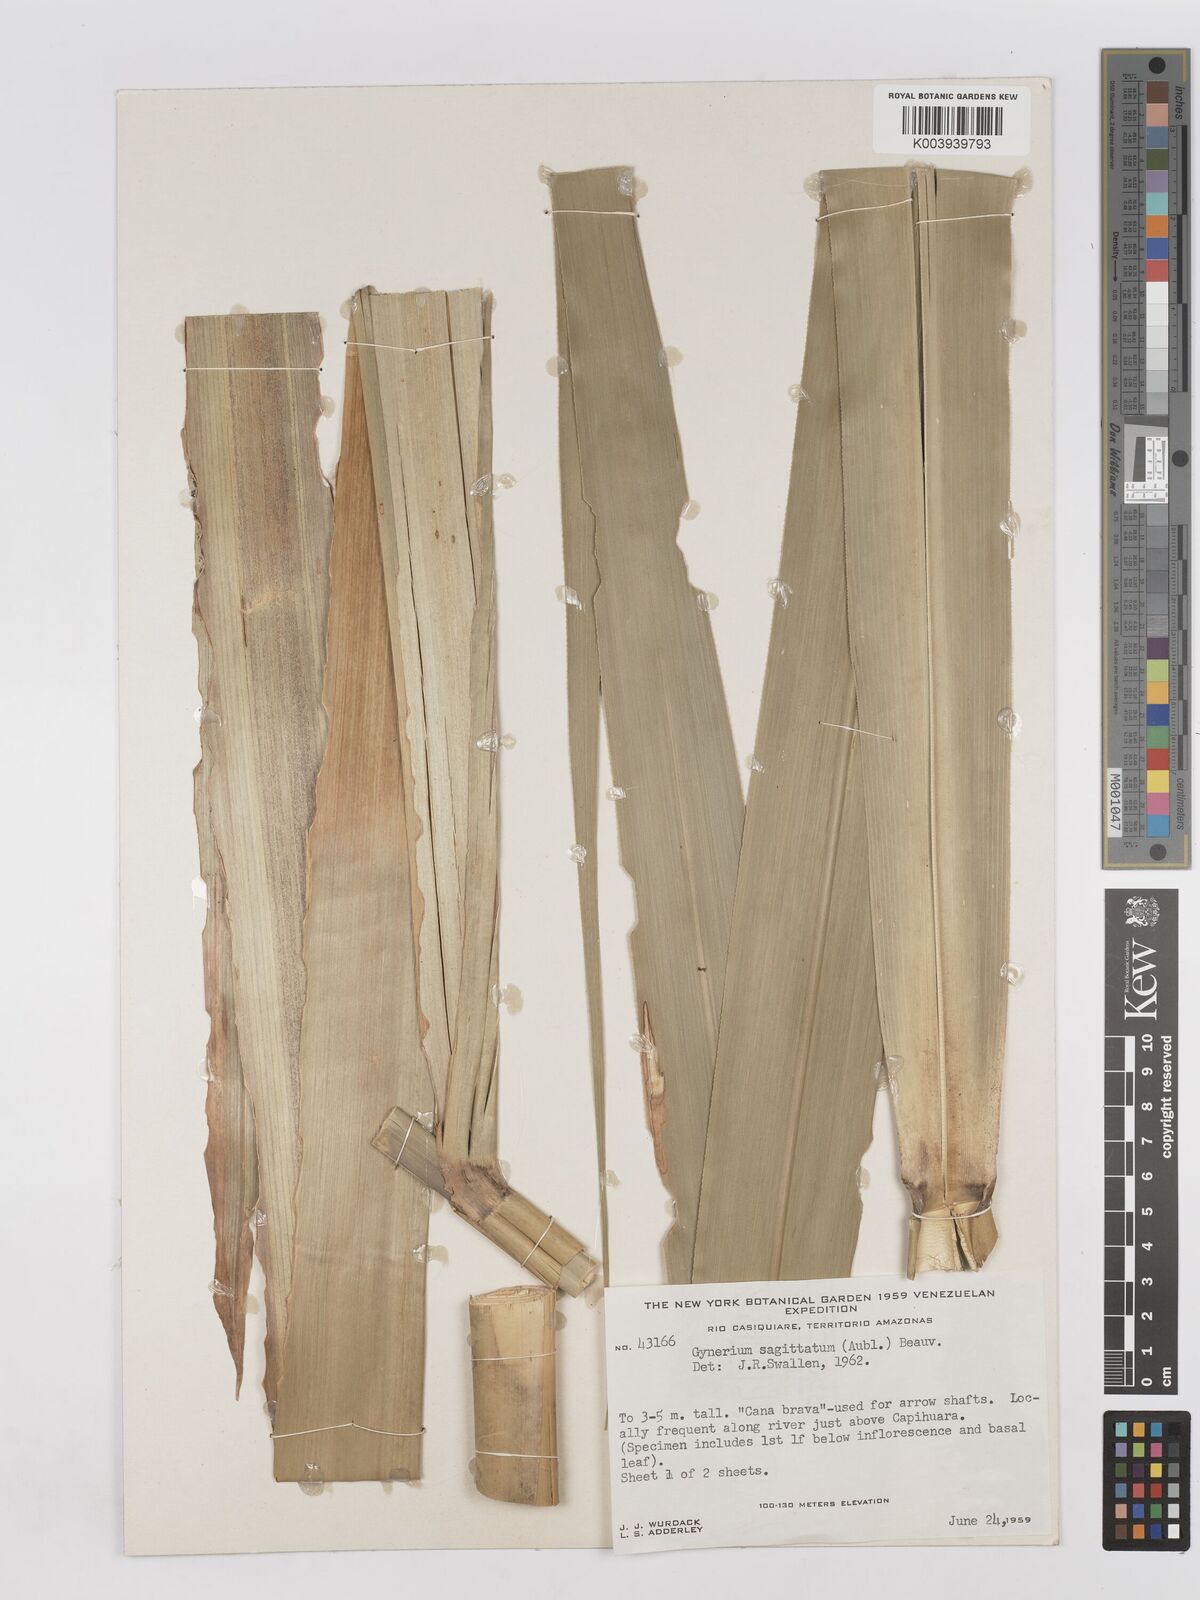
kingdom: Plantae
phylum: Tracheophyta
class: Liliopsida
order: Poales
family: Poaceae
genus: Gynerium
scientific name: Gynerium sagittatum
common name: Wild cane
